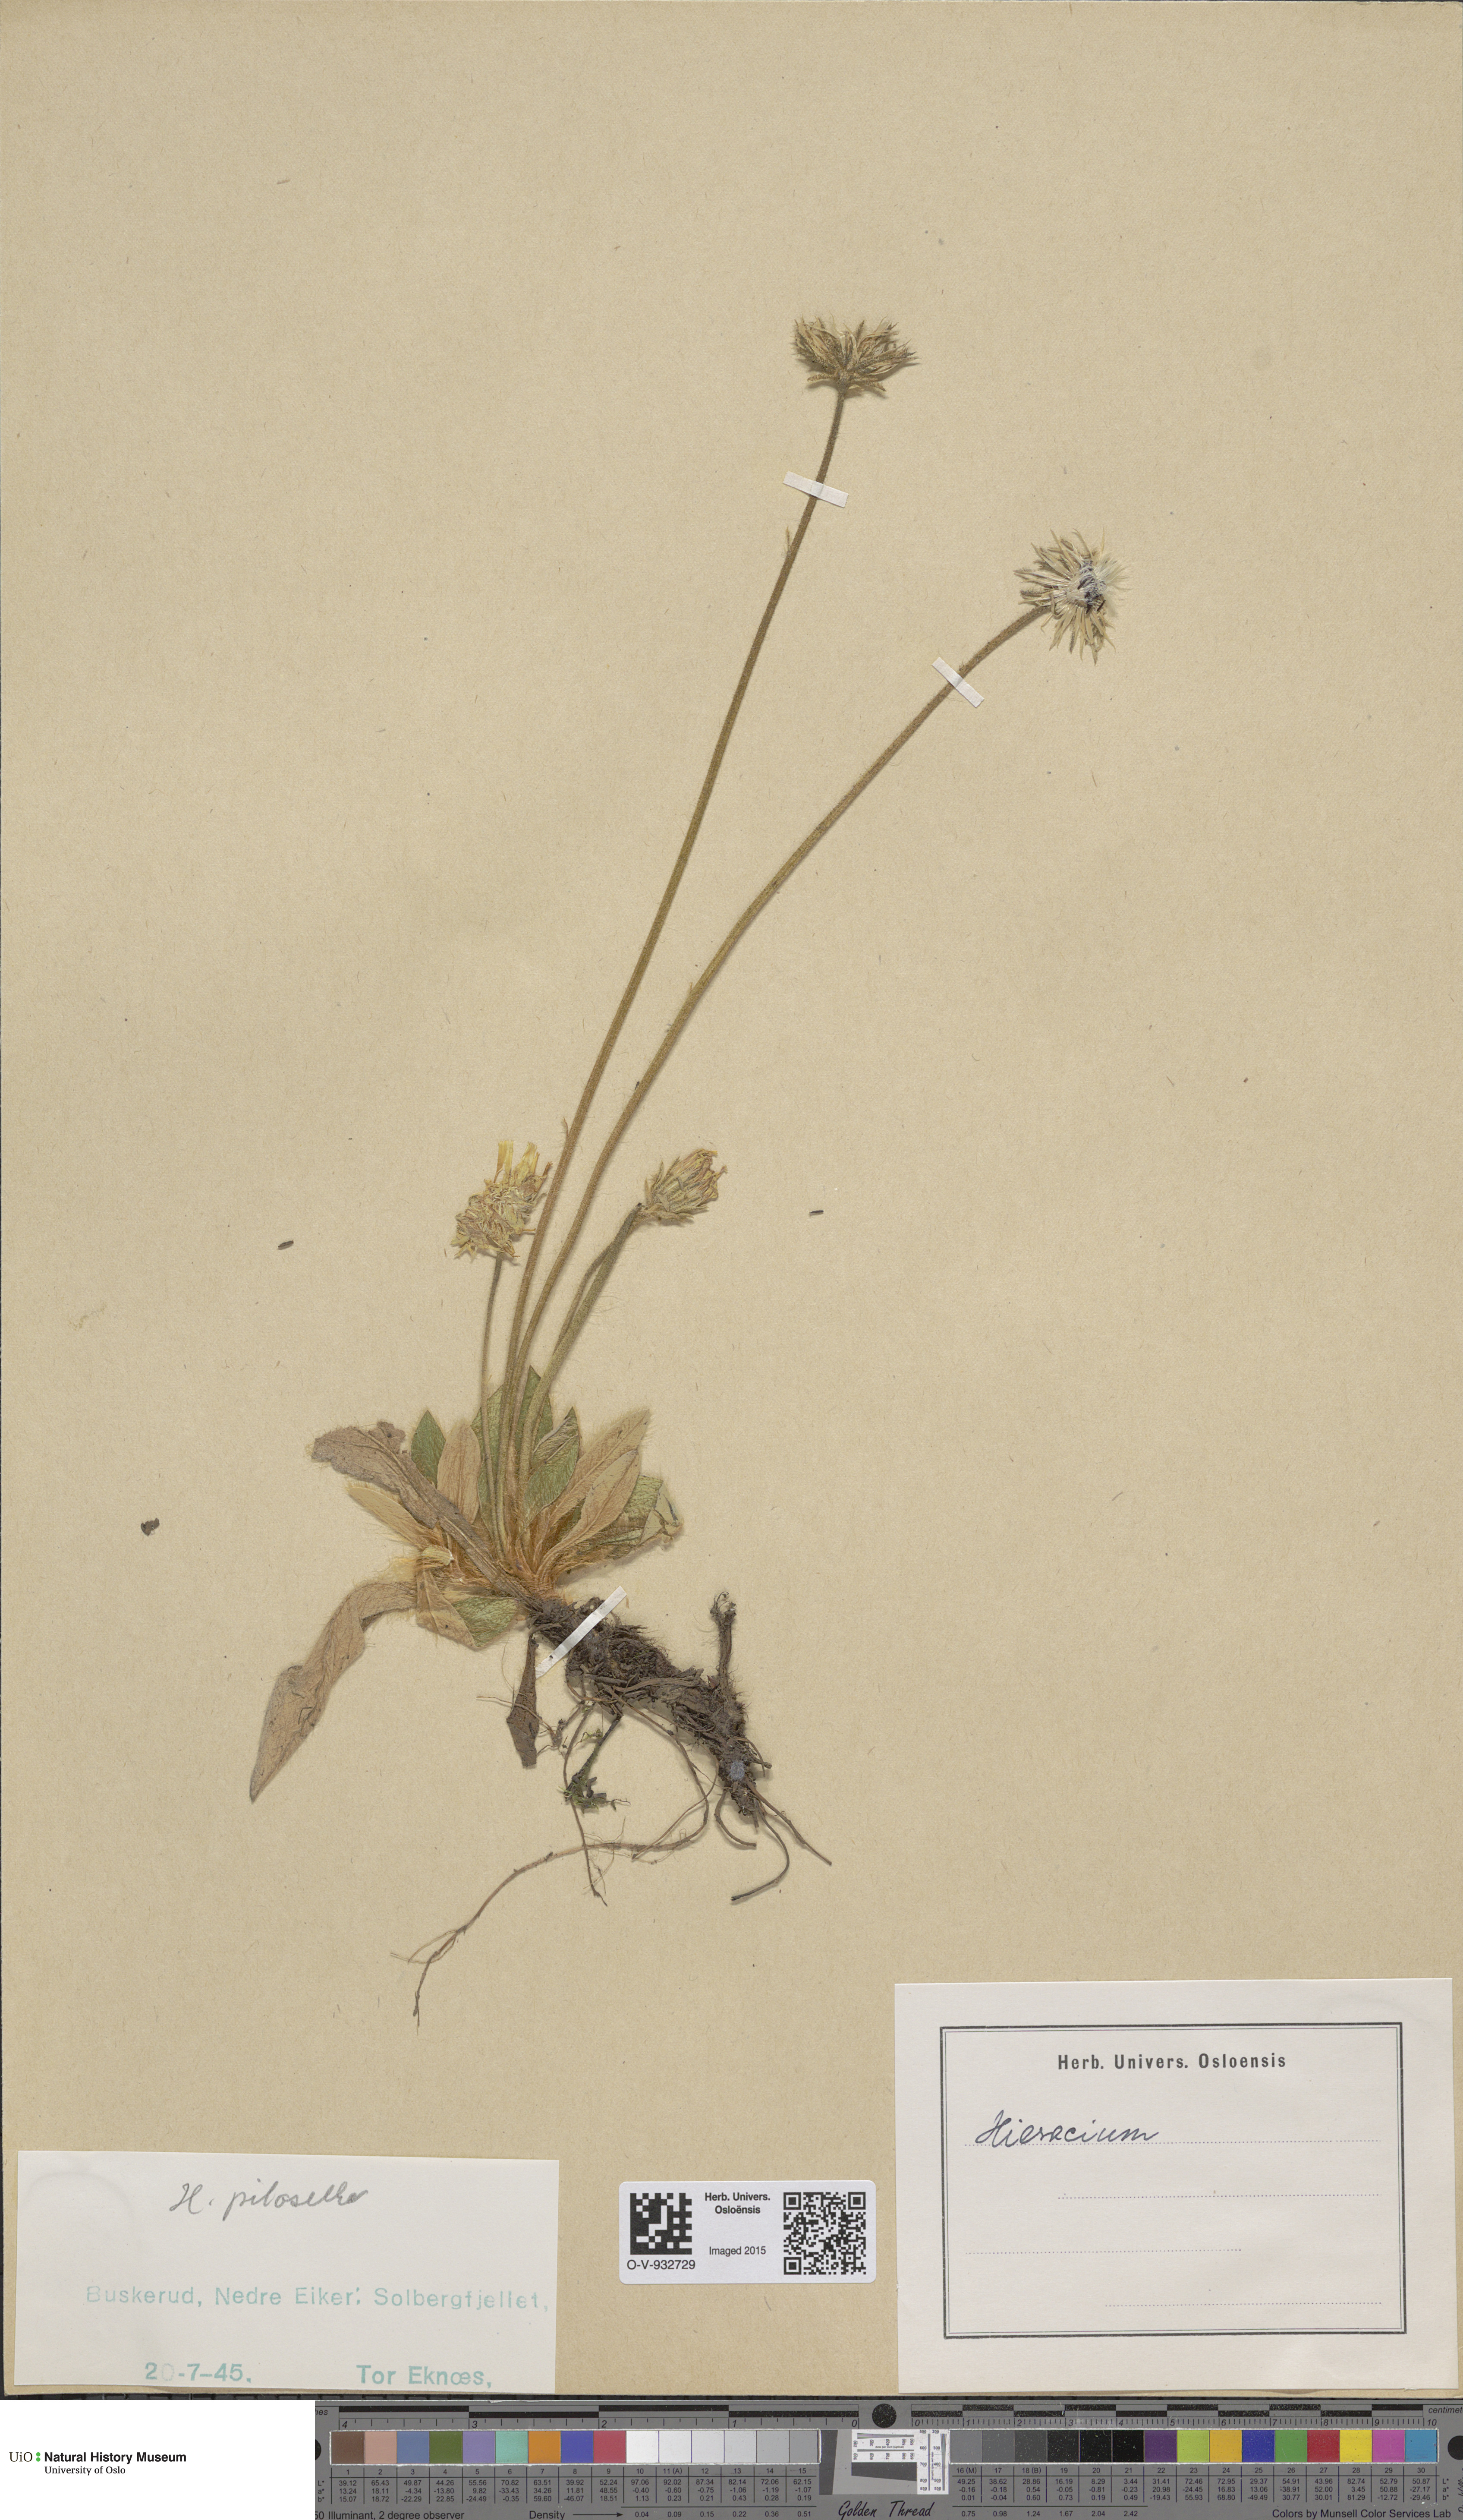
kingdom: Plantae
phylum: Tracheophyta
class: Magnoliopsida
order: Asterales
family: Asteraceae
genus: Pilosella
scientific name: Pilosella officinarum
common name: Mouse-ear hawkweed
